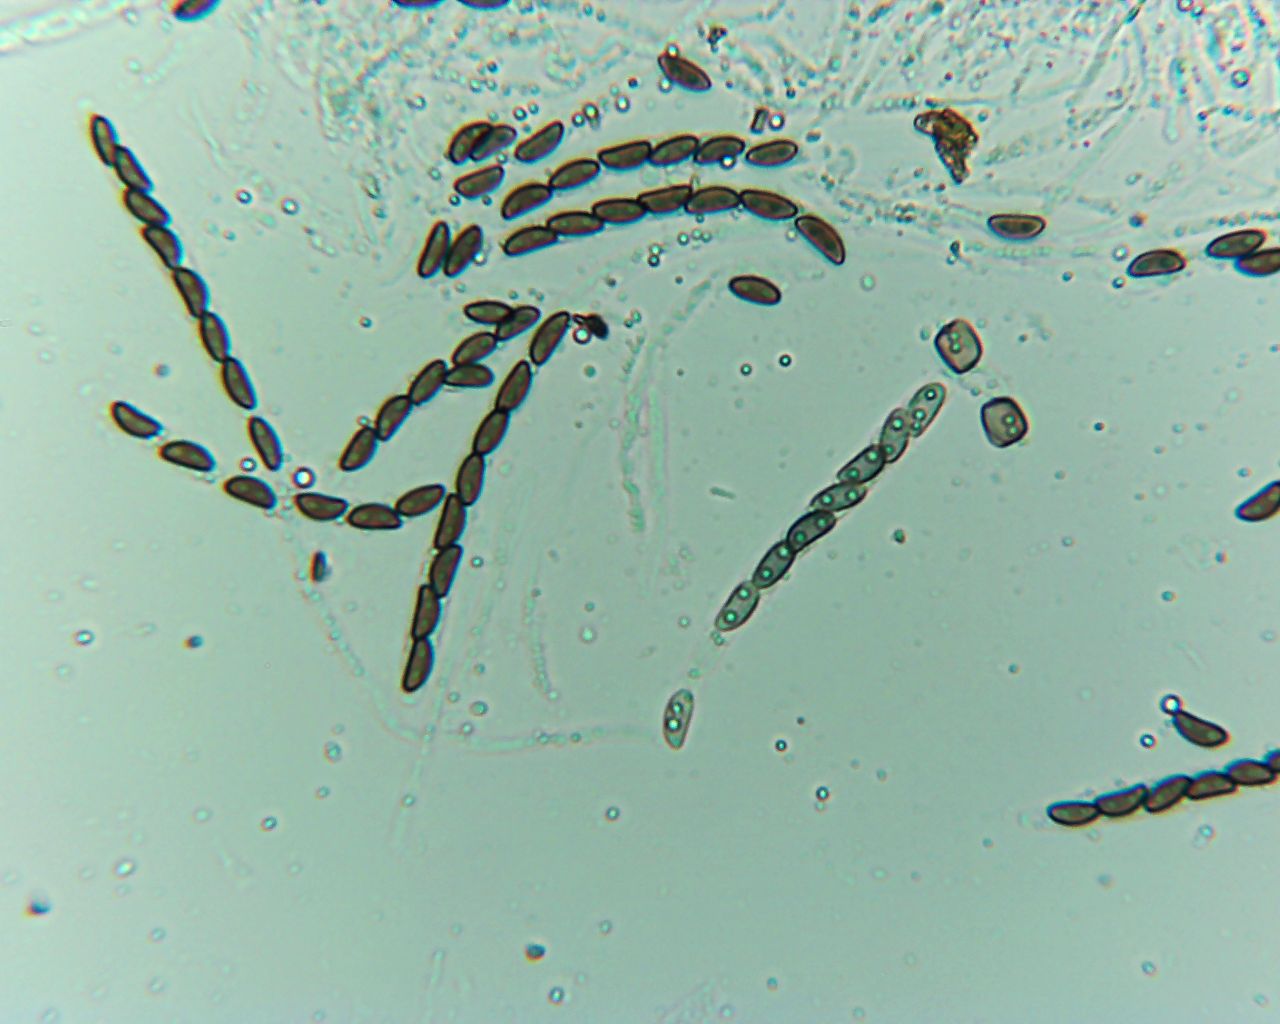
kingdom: Fungi
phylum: Ascomycota
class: Sordariomycetes
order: Xylariales
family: Hypoxylaceae
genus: Jackrogersella
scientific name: Jackrogersella cohaerens
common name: sammenflydende kulbær
